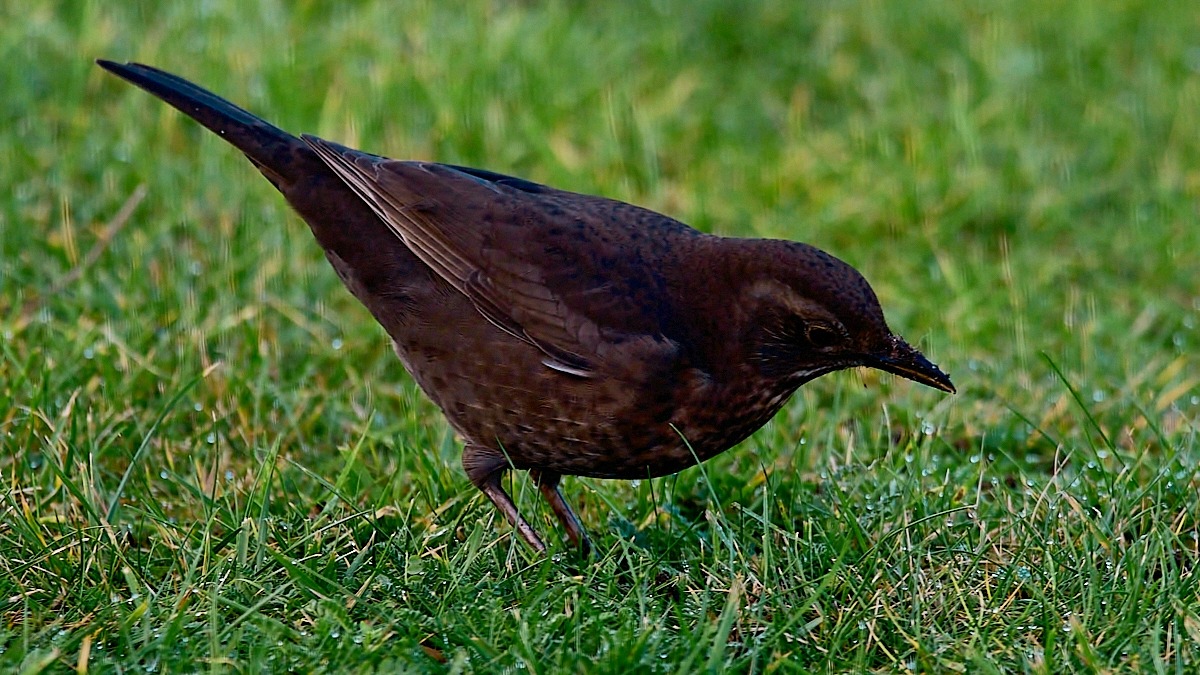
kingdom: Animalia
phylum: Chordata
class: Aves
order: Passeriformes
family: Turdidae
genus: Turdus
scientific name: Turdus merula
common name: Solsort
